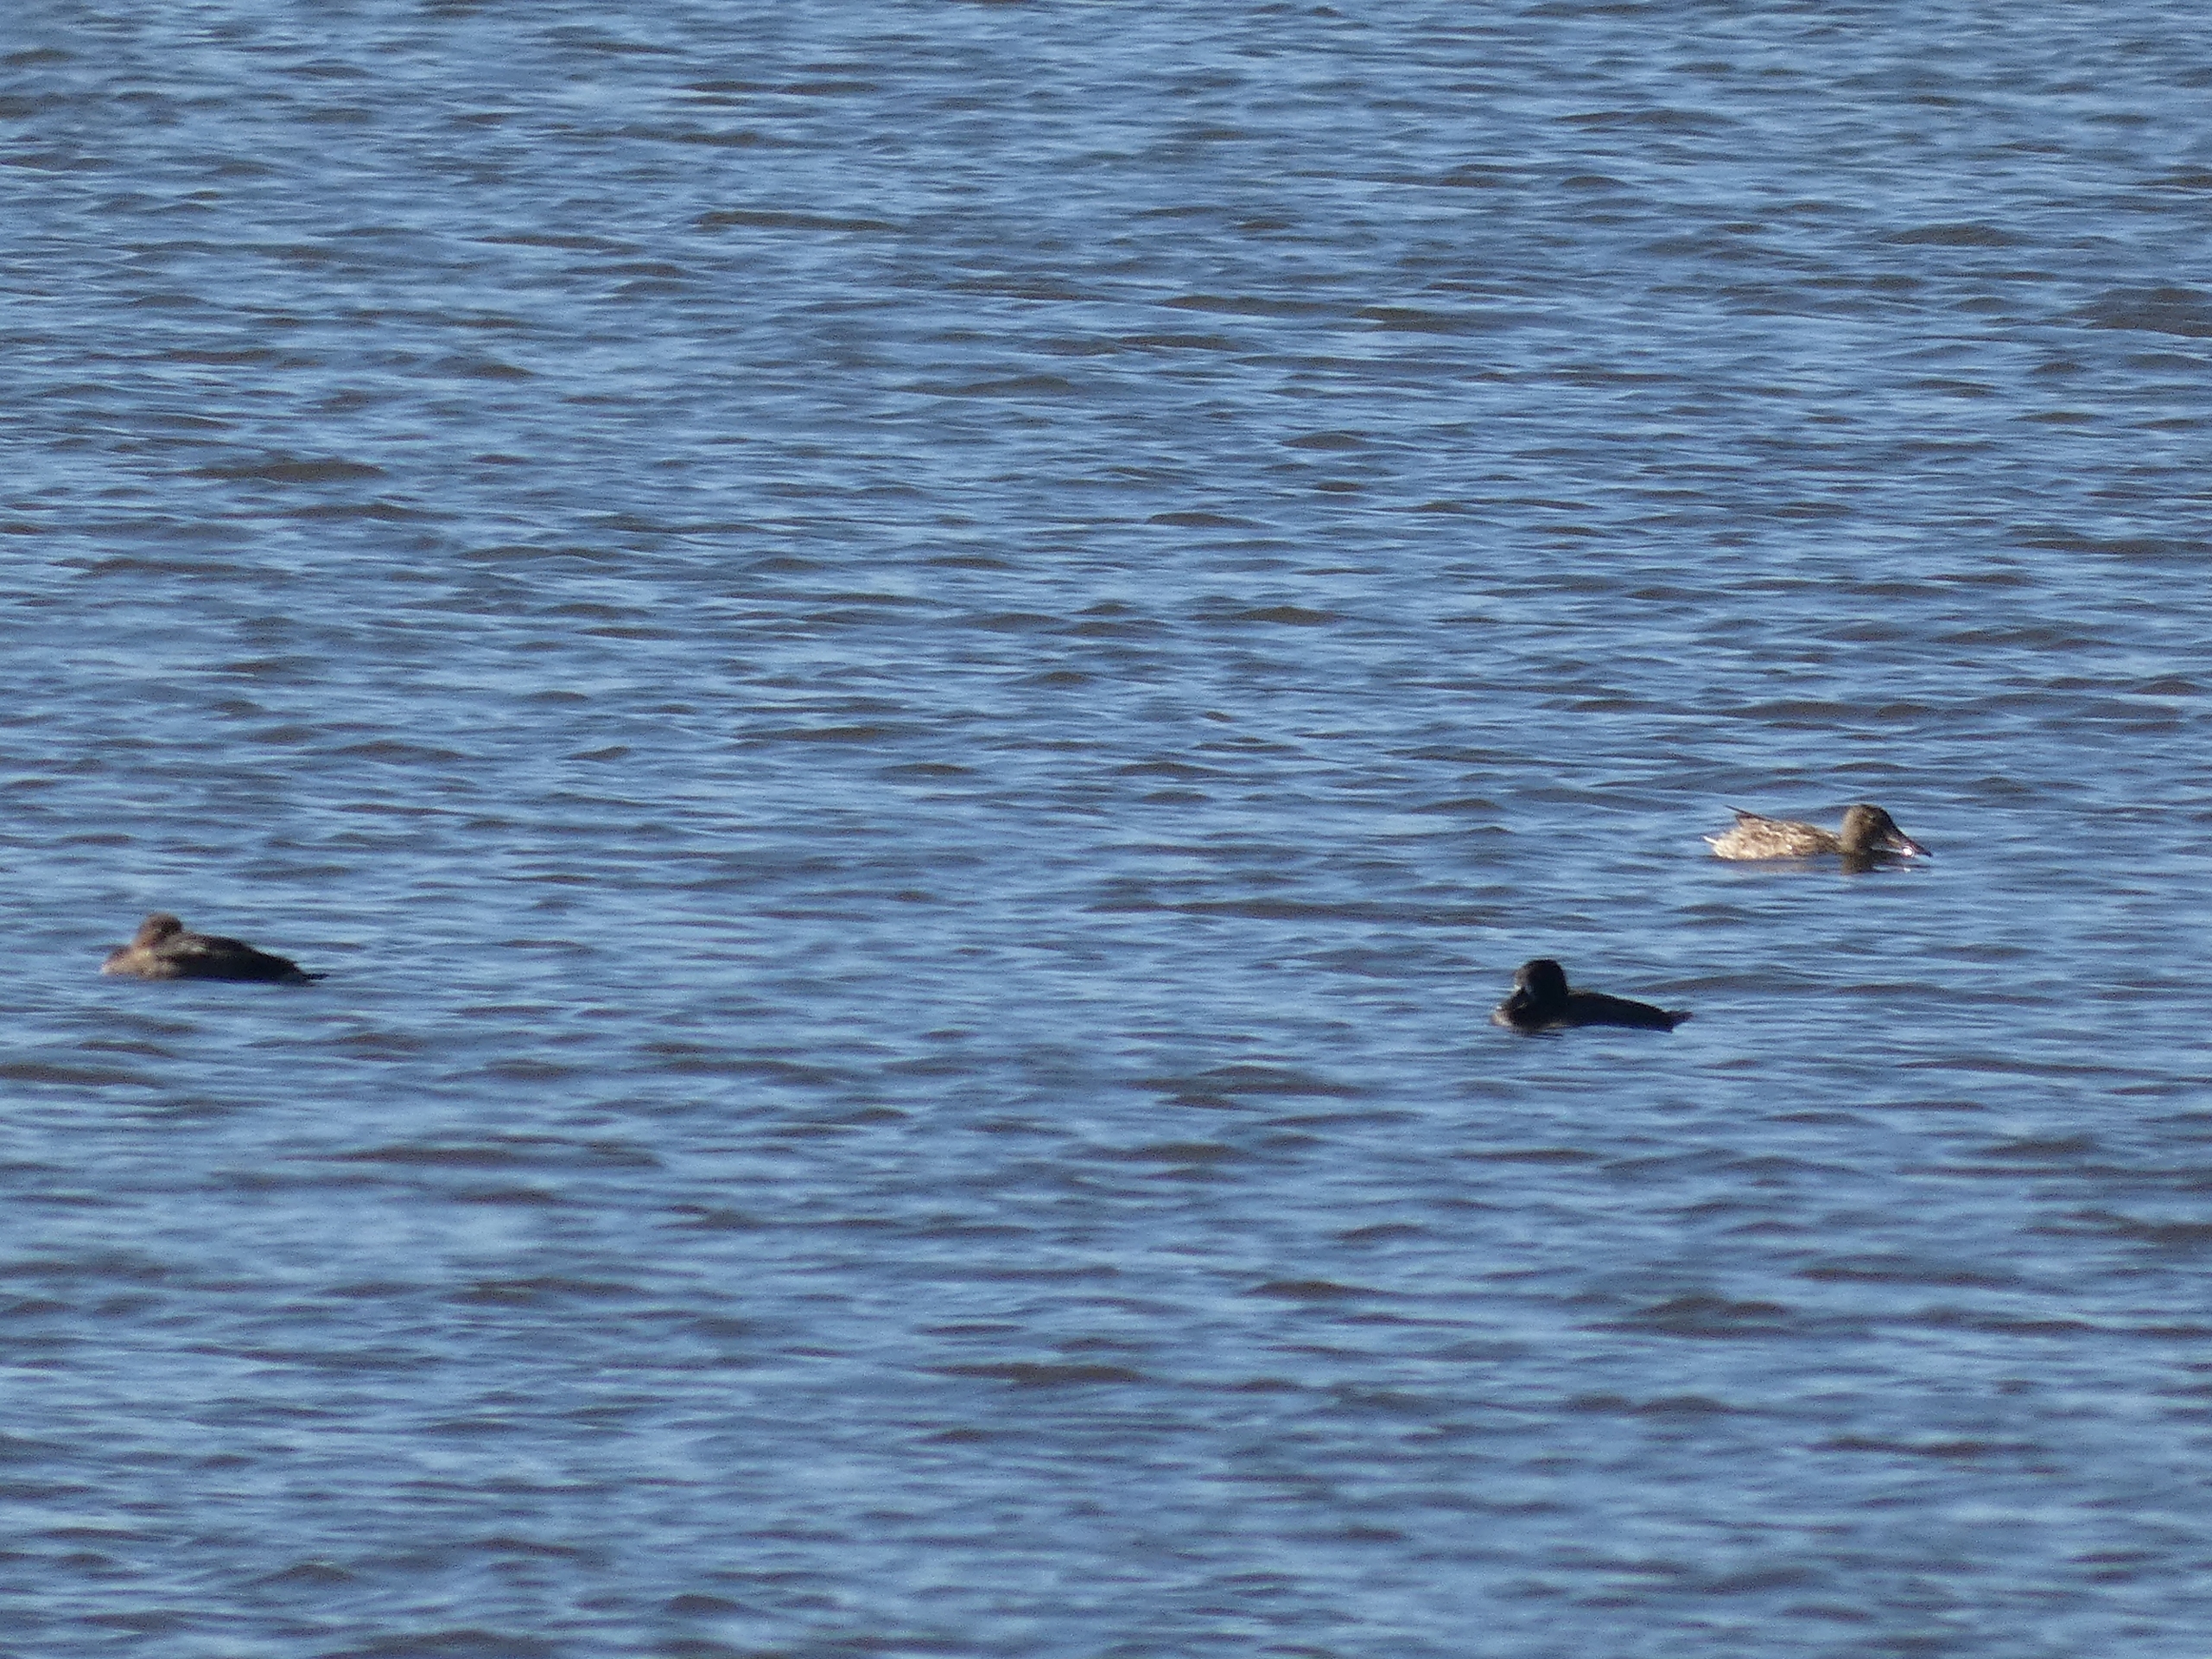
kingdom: Animalia
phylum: Chordata
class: Aves
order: Anseriformes
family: Anatidae
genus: Spatula
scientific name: Spatula clypeata
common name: Skeand
